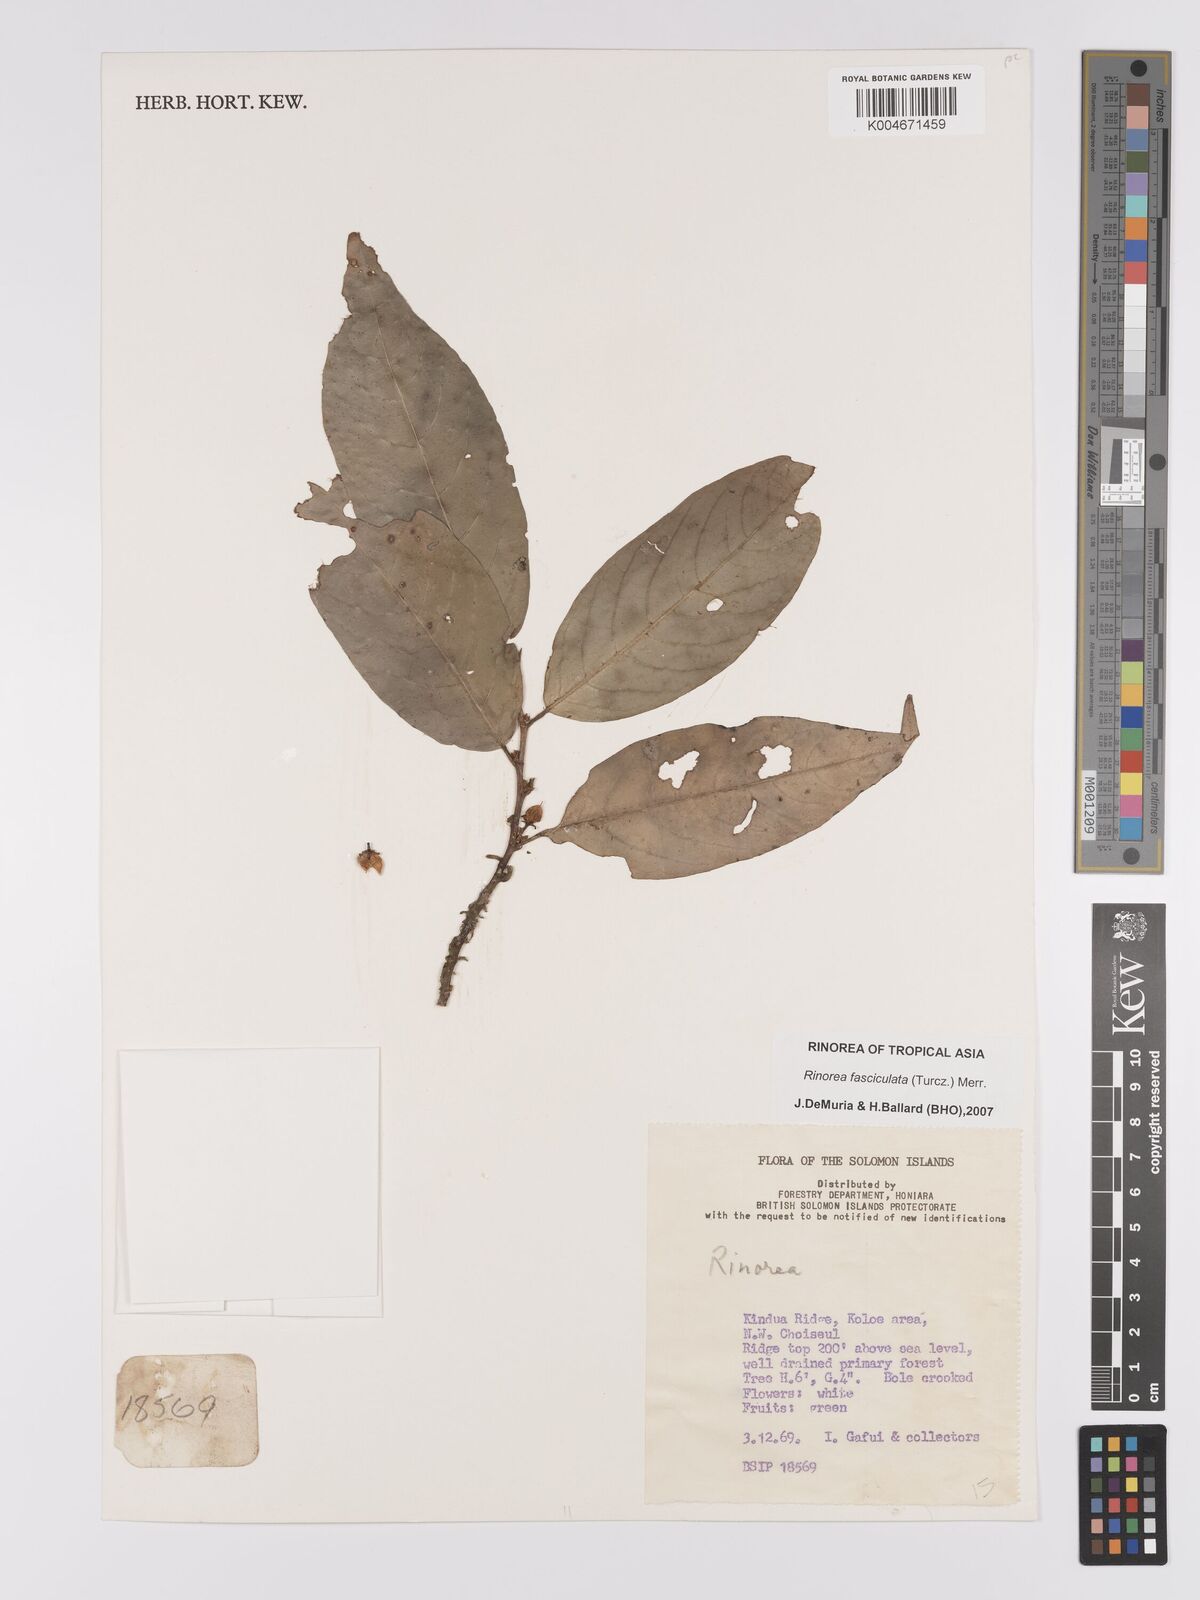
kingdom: Plantae
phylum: Tracheophyta
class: Magnoliopsida
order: Malpighiales
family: Violaceae
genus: Rinorea
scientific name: Rinorea bengalensis
